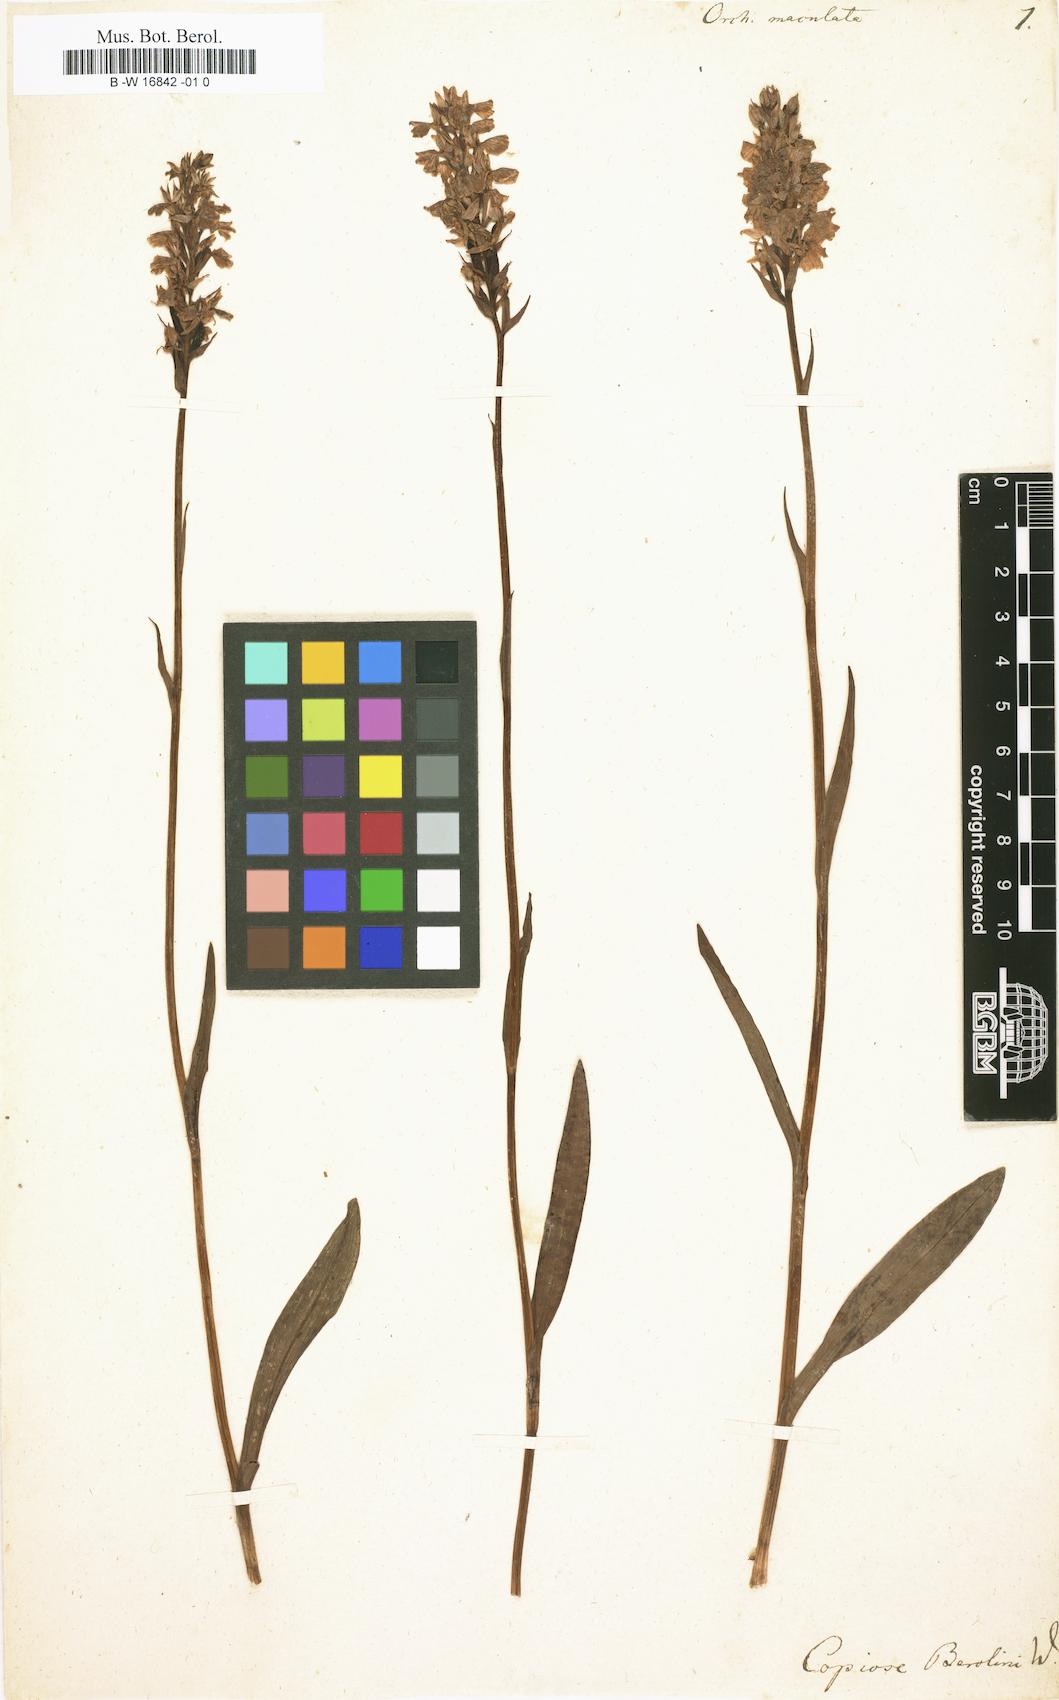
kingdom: Plantae
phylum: Tracheophyta
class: Liliopsida
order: Asparagales
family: Orchidaceae
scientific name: Orchidaceae
